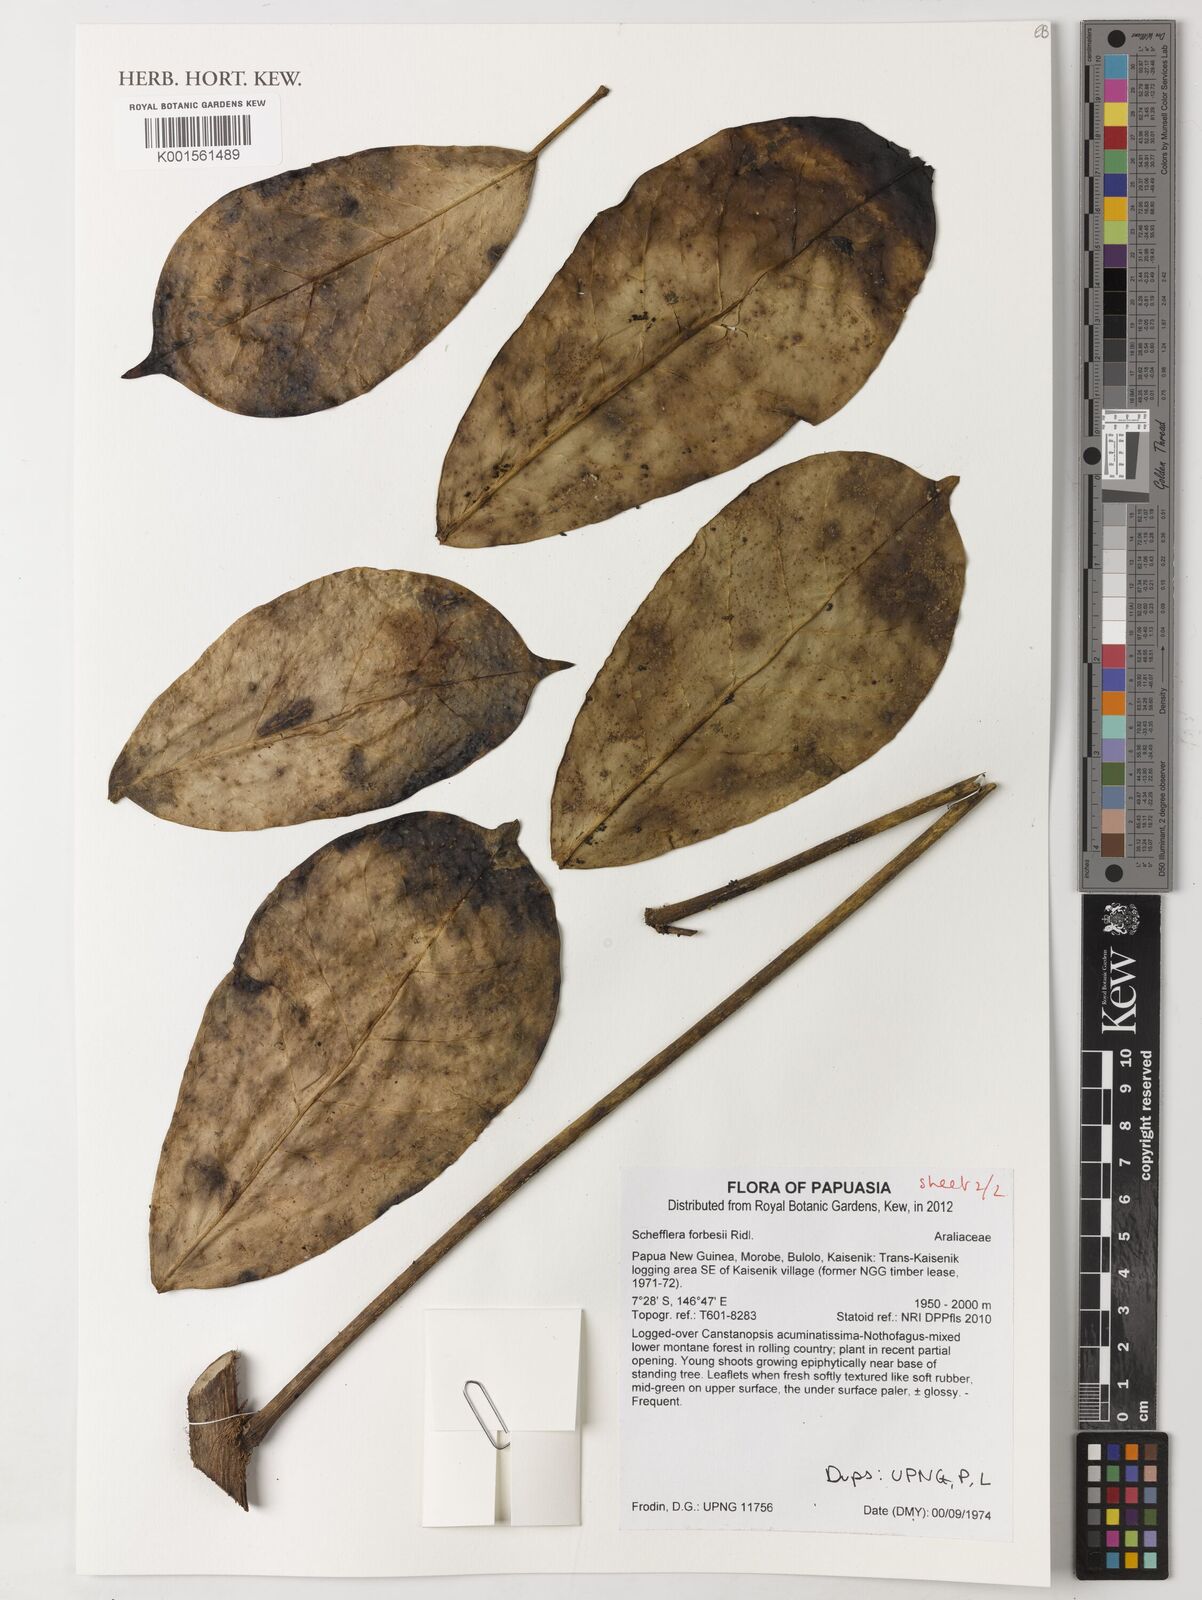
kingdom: Plantae
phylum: Tracheophyta
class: Magnoliopsida
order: Apiales
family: Araliaceae
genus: Heptapleurum
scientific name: Heptapleurum forbesii
